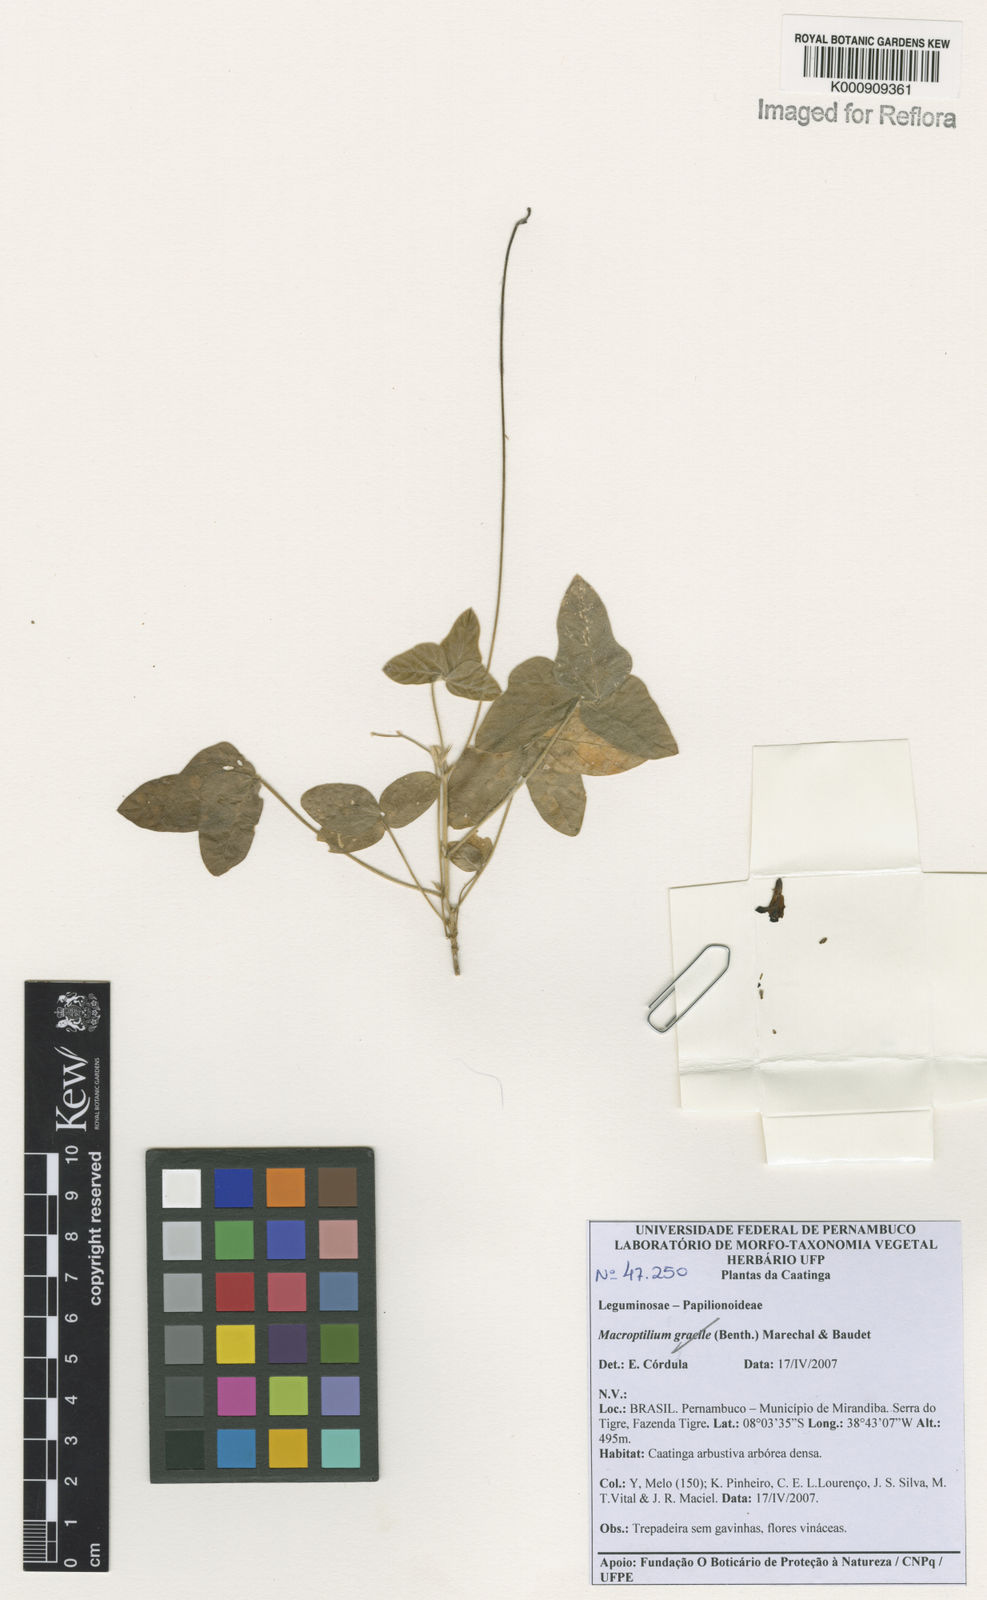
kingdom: Plantae
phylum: Tracheophyta
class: Magnoliopsida
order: Fabales
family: Fabaceae
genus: Macroptilium
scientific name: Macroptilium
